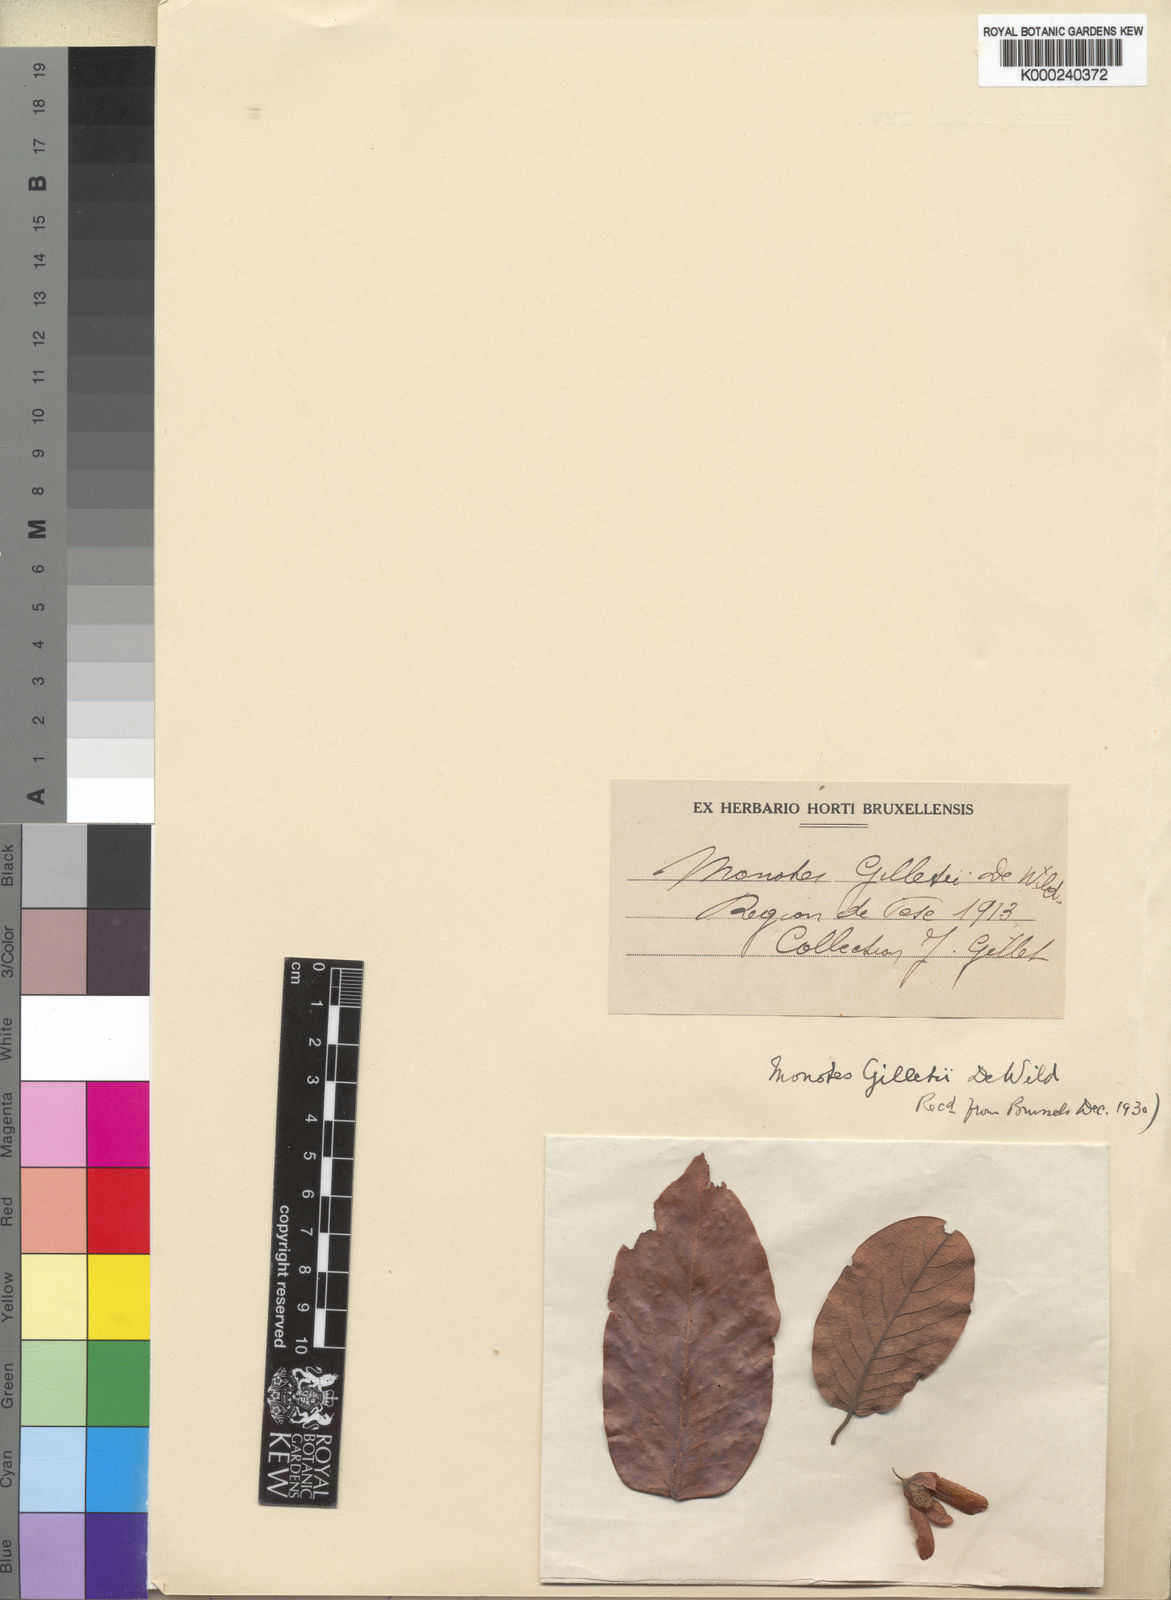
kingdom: Plantae
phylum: Tracheophyta
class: Magnoliopsida
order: Malvales
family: Dipterocarpaceae
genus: Marquesia
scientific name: Marquesia acuminata
